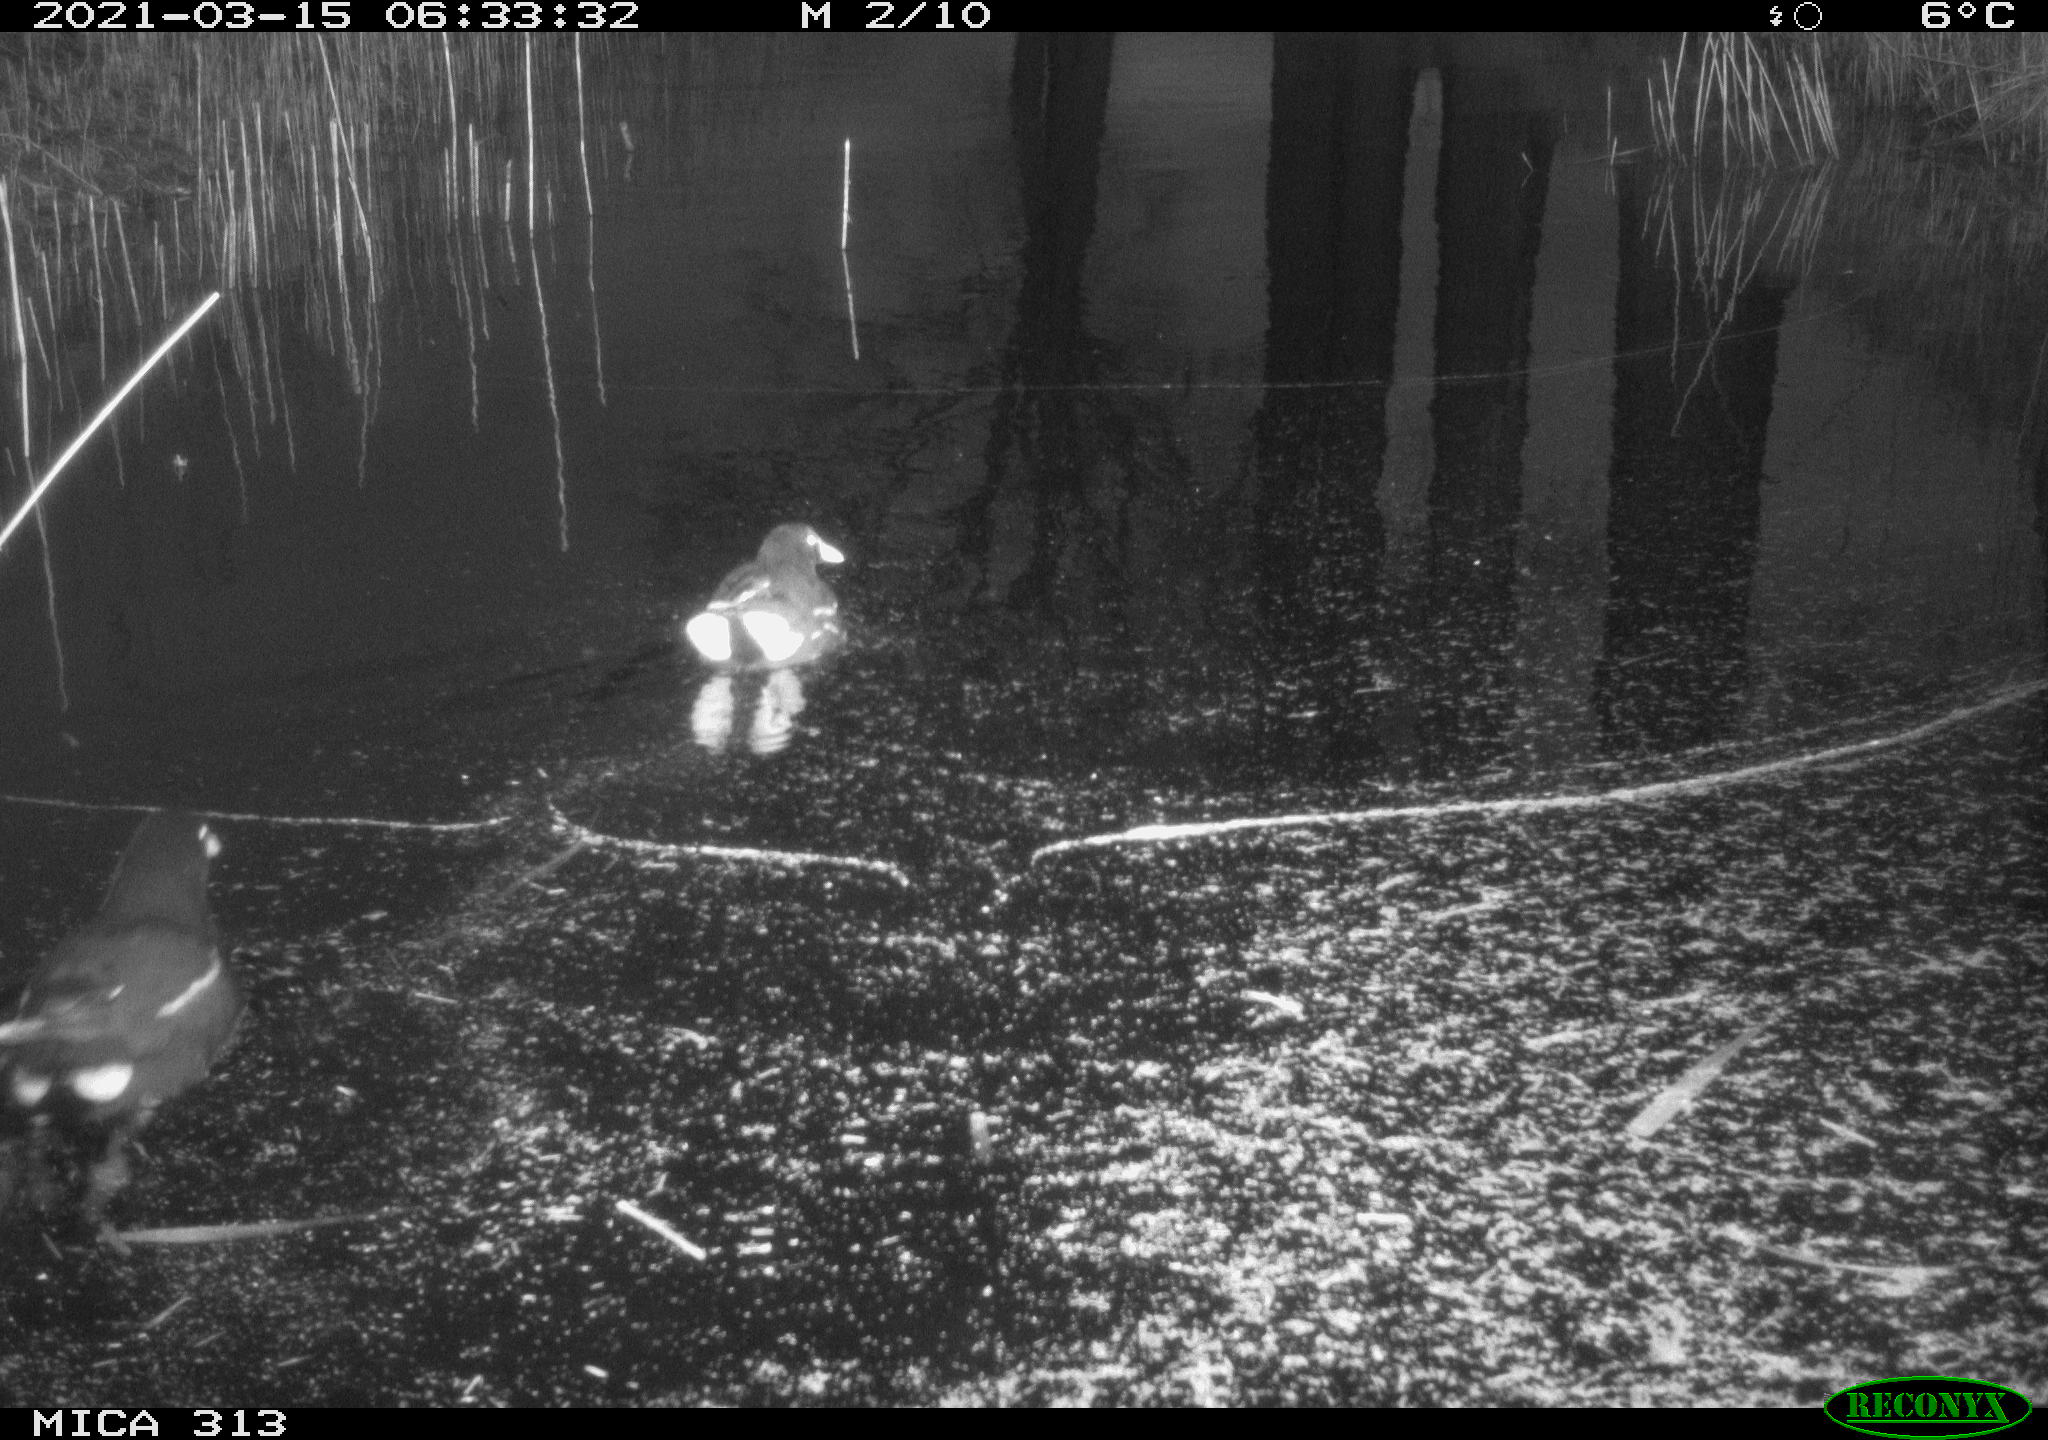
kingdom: Animalia
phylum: Chordata
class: Aves
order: Gruiformes
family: Rallidae
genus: Gallinula
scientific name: Gallinula chloropus
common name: Common moorhen
